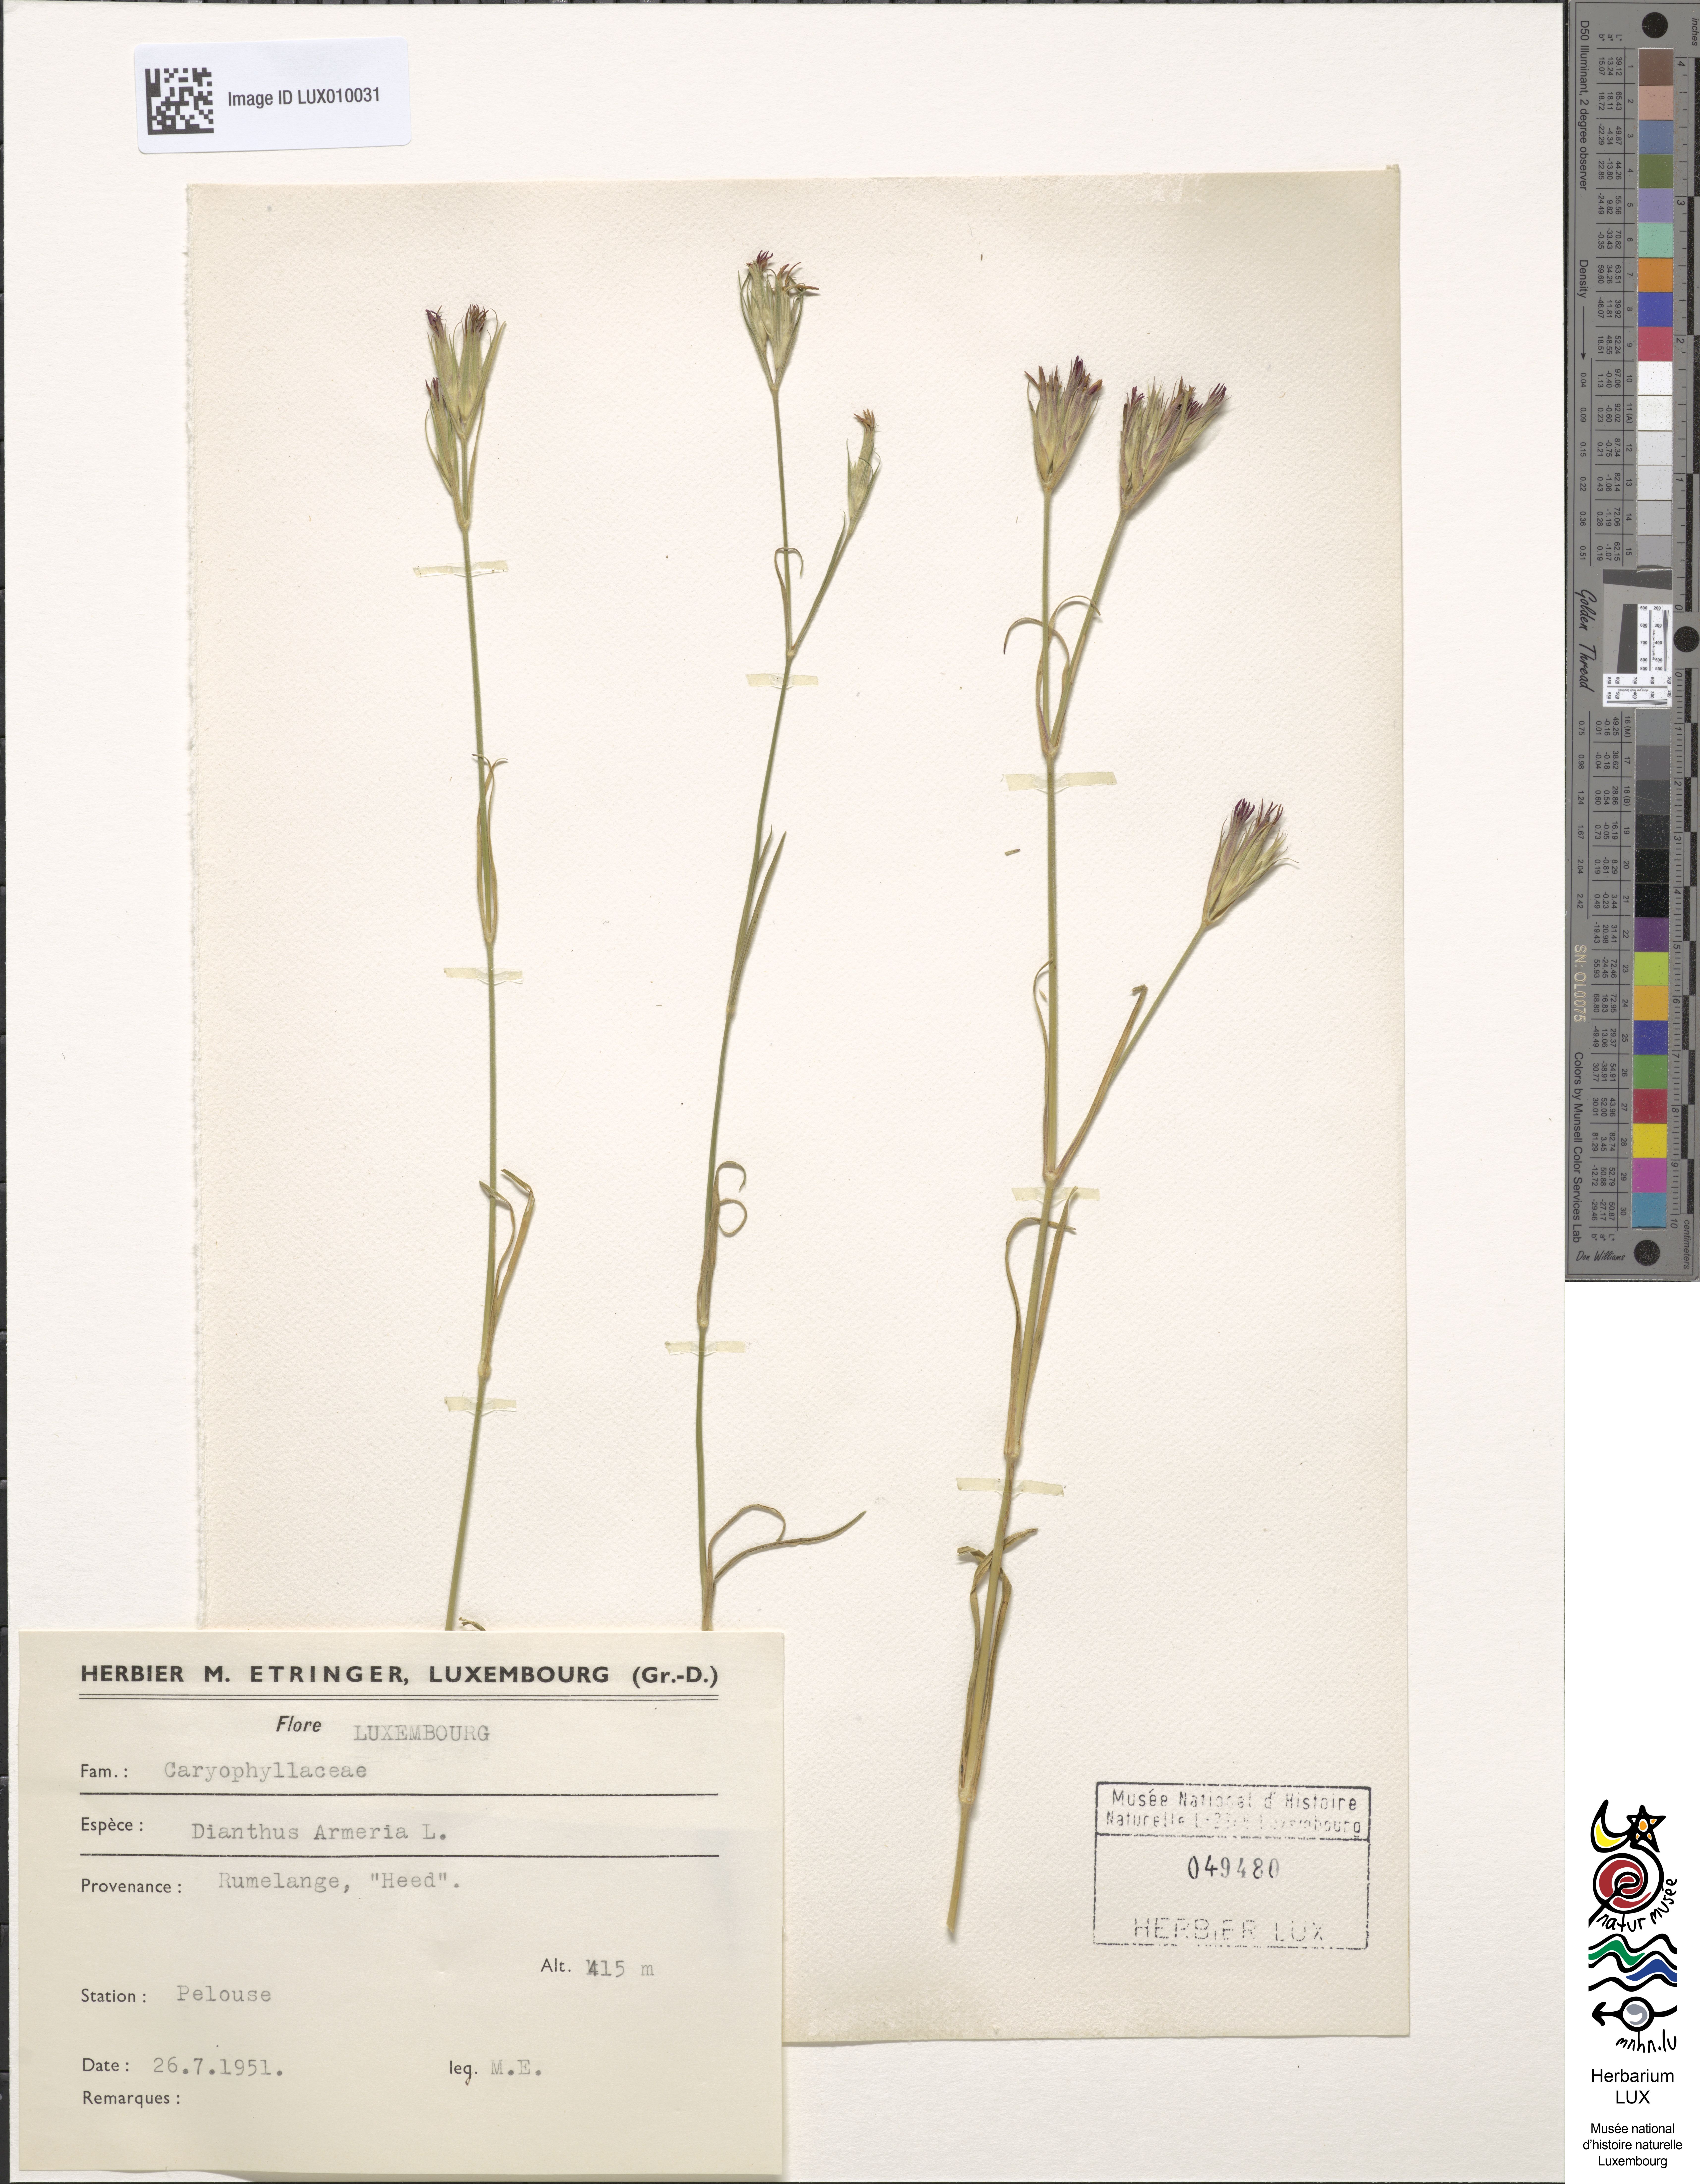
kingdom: Plantae
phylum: Tracheophyta
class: Magnoliopsida
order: Caryophyllales
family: Caryophyllaceae
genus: Dianthus
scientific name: Dianthus armeria
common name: Deptford pink
